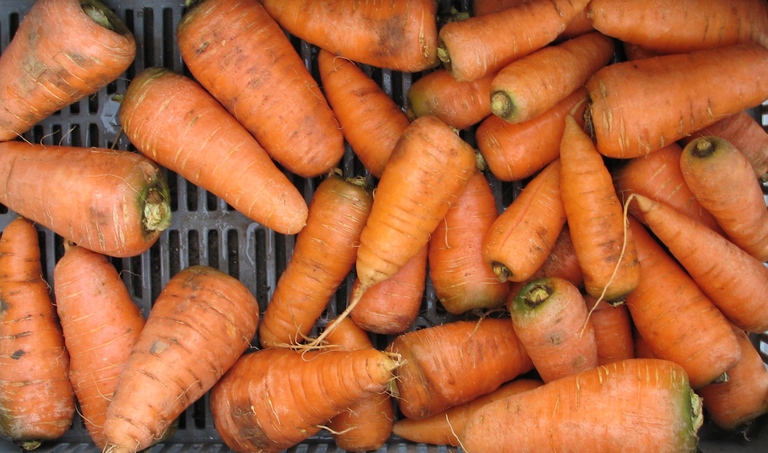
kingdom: Plantae
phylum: Tracheophyta
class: Magnoliopsida
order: Apiales
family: Apiaceae
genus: Daucus
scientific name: Daucus carota
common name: Wild carrot
